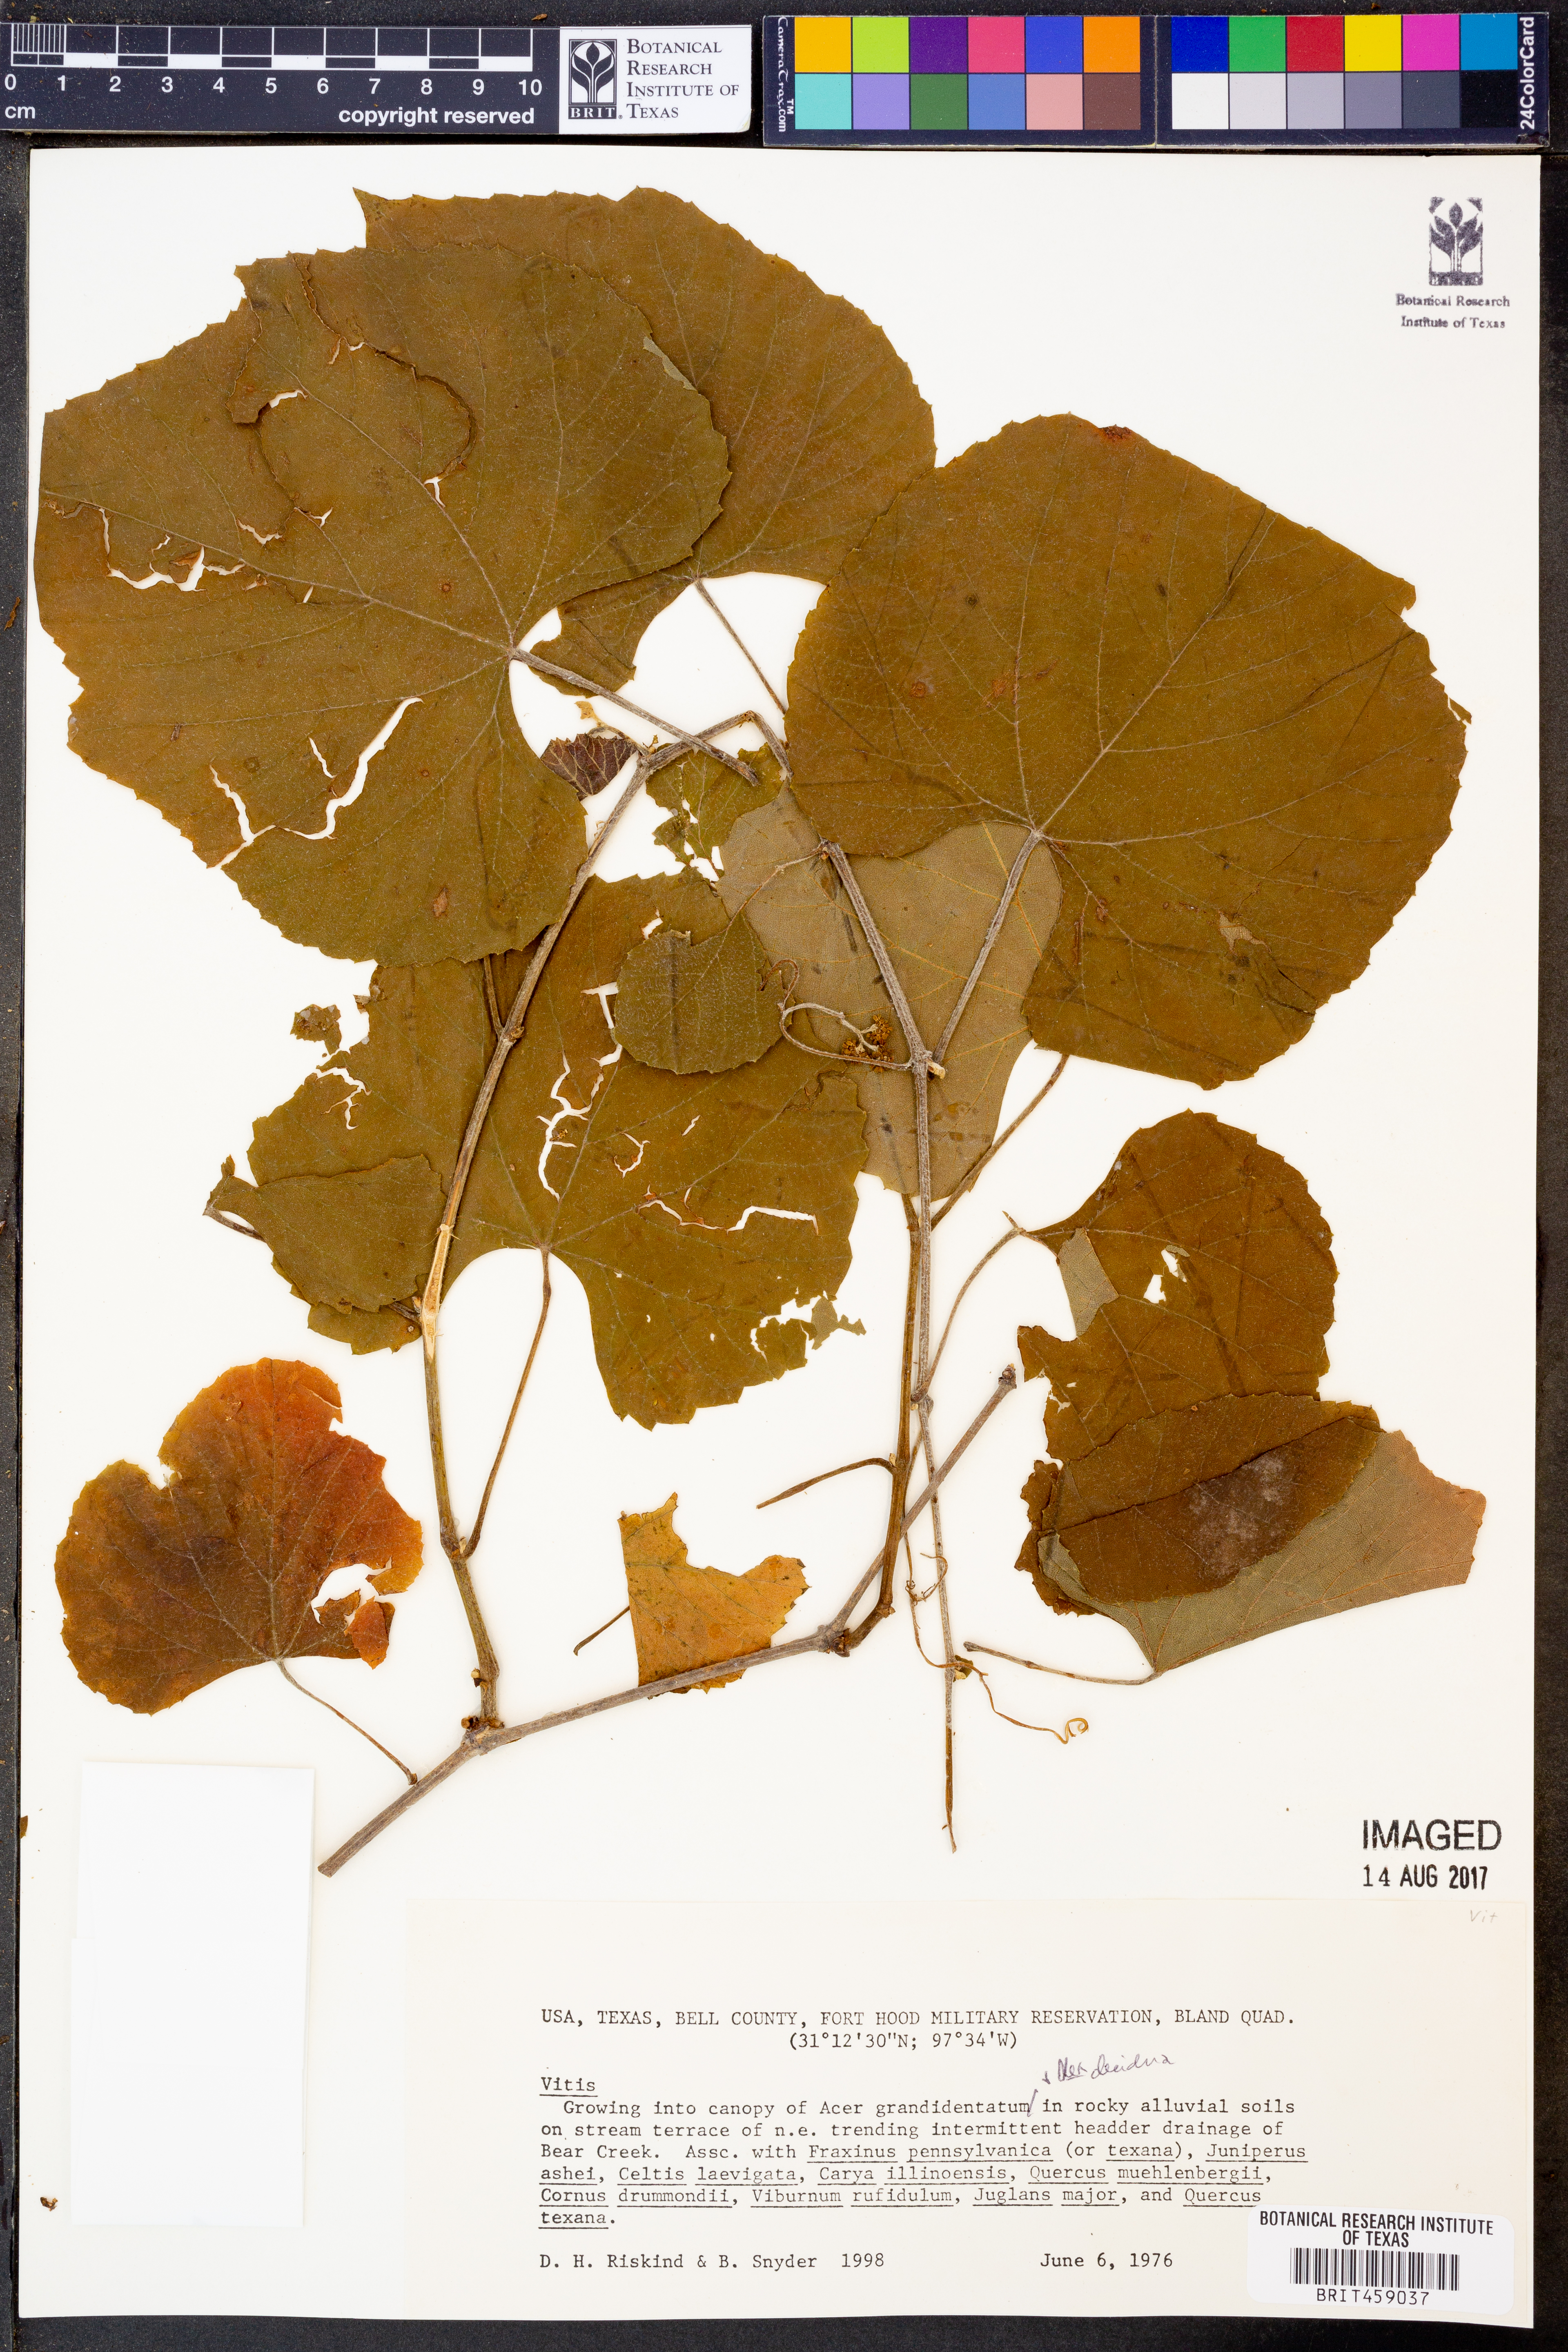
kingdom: Plantae
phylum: Tracheophyta
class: Magnoliopsida
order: Vitales
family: Vitaceae
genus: Vitis
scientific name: Vitis
